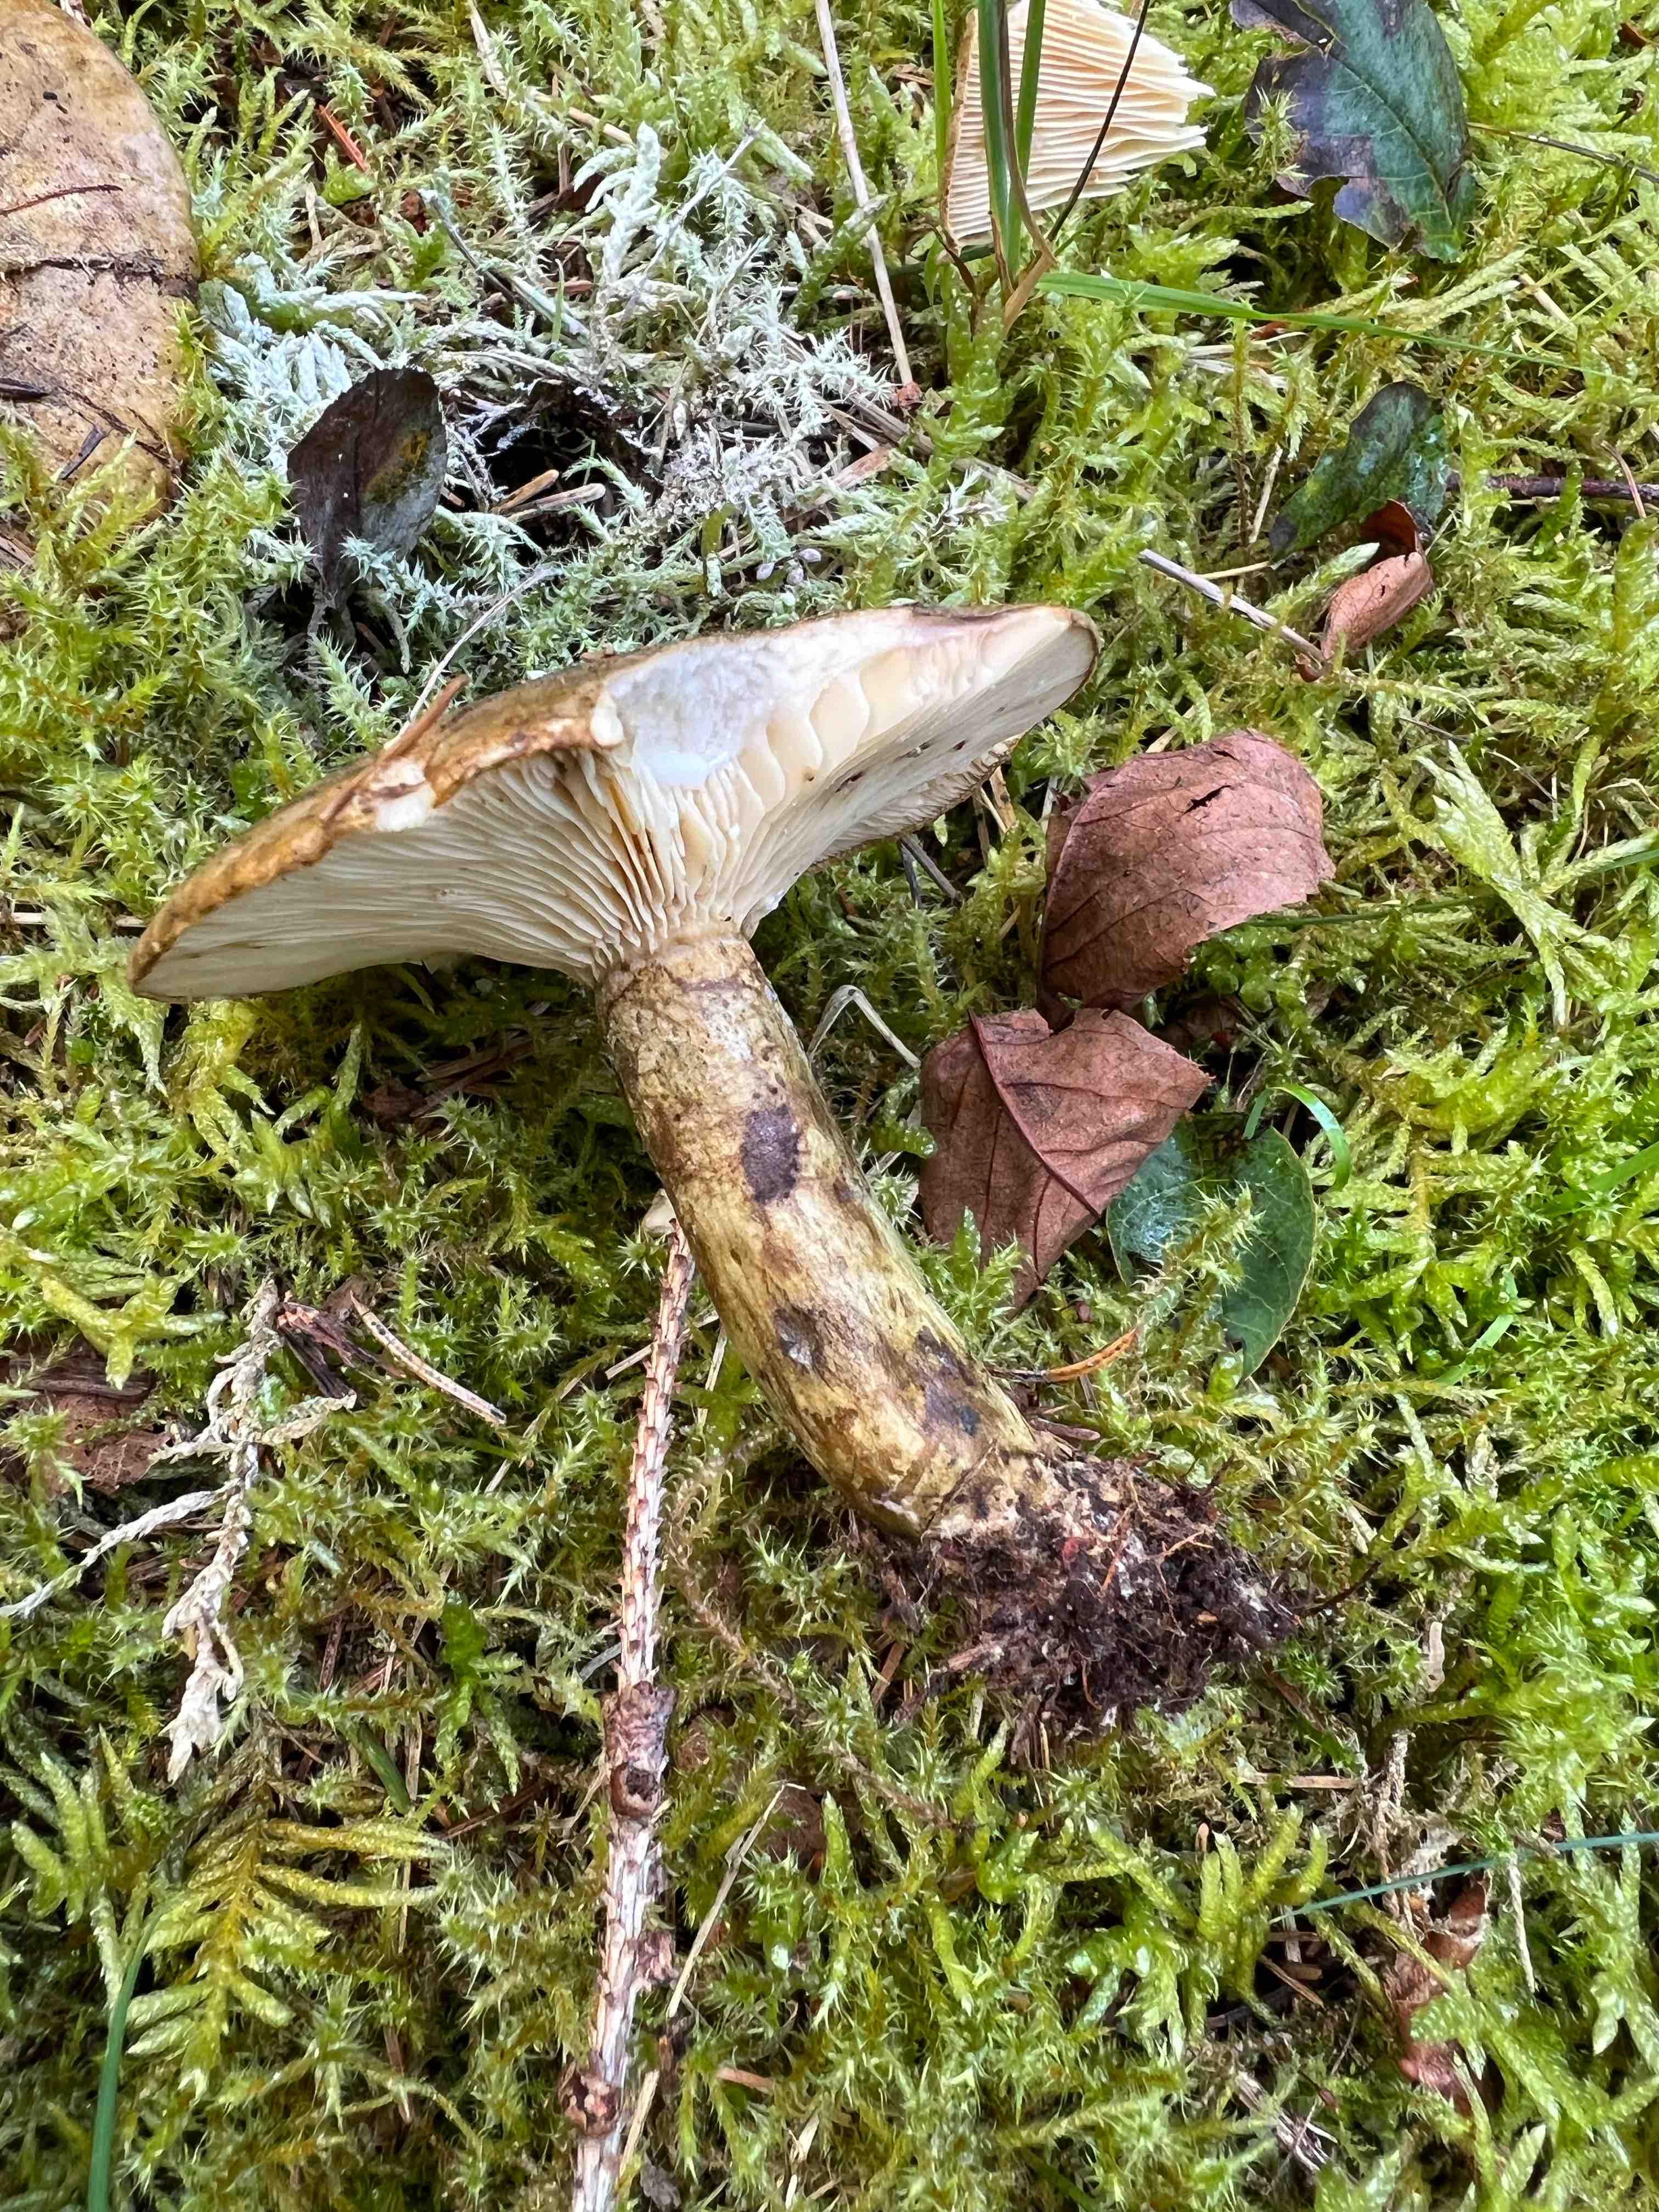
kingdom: Fungi
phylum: Basidiomycota
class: Agaricomycetes
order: Russulales
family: Russulaceae
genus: Lactarius
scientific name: Lactarius necator
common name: manddraber-mælkehat
